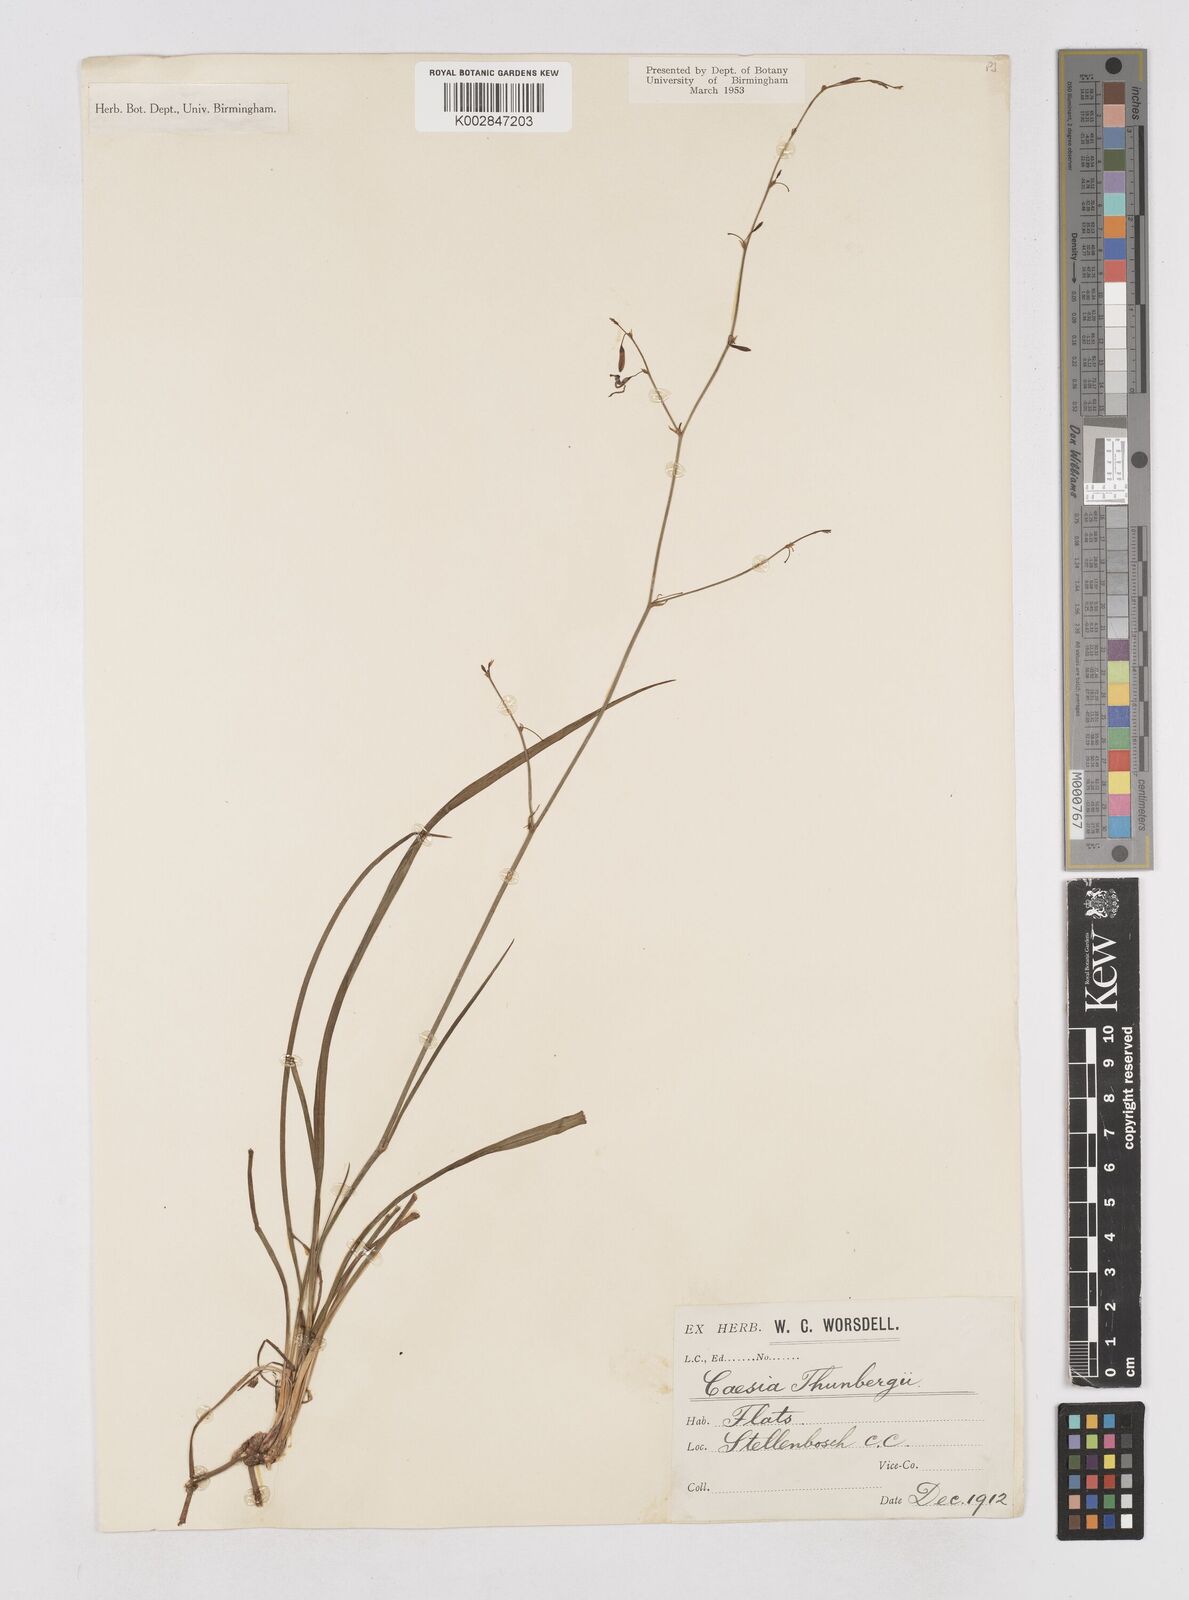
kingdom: Plantae
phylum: Tracheophyta
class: Liliopsida
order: Asparagales
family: Asphodelaceae
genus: Caesia
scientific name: Caesia contorta
